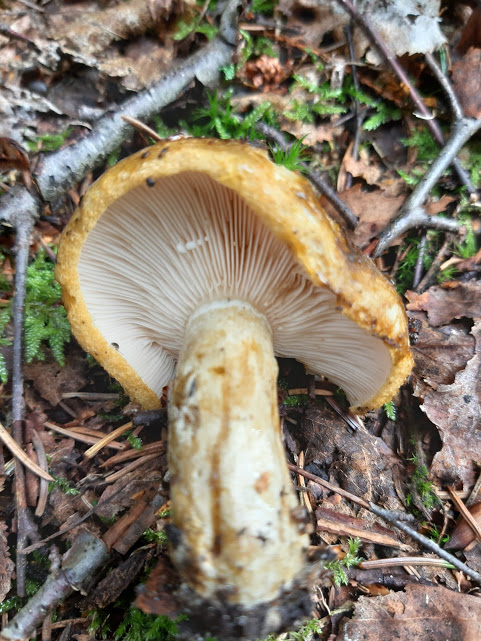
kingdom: Fungi
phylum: Basidiomycota
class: Agaricomycetes
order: Russulales
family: Russulaceae
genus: Lactarius
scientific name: Lactarius necator
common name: manddraber-mælkehat
